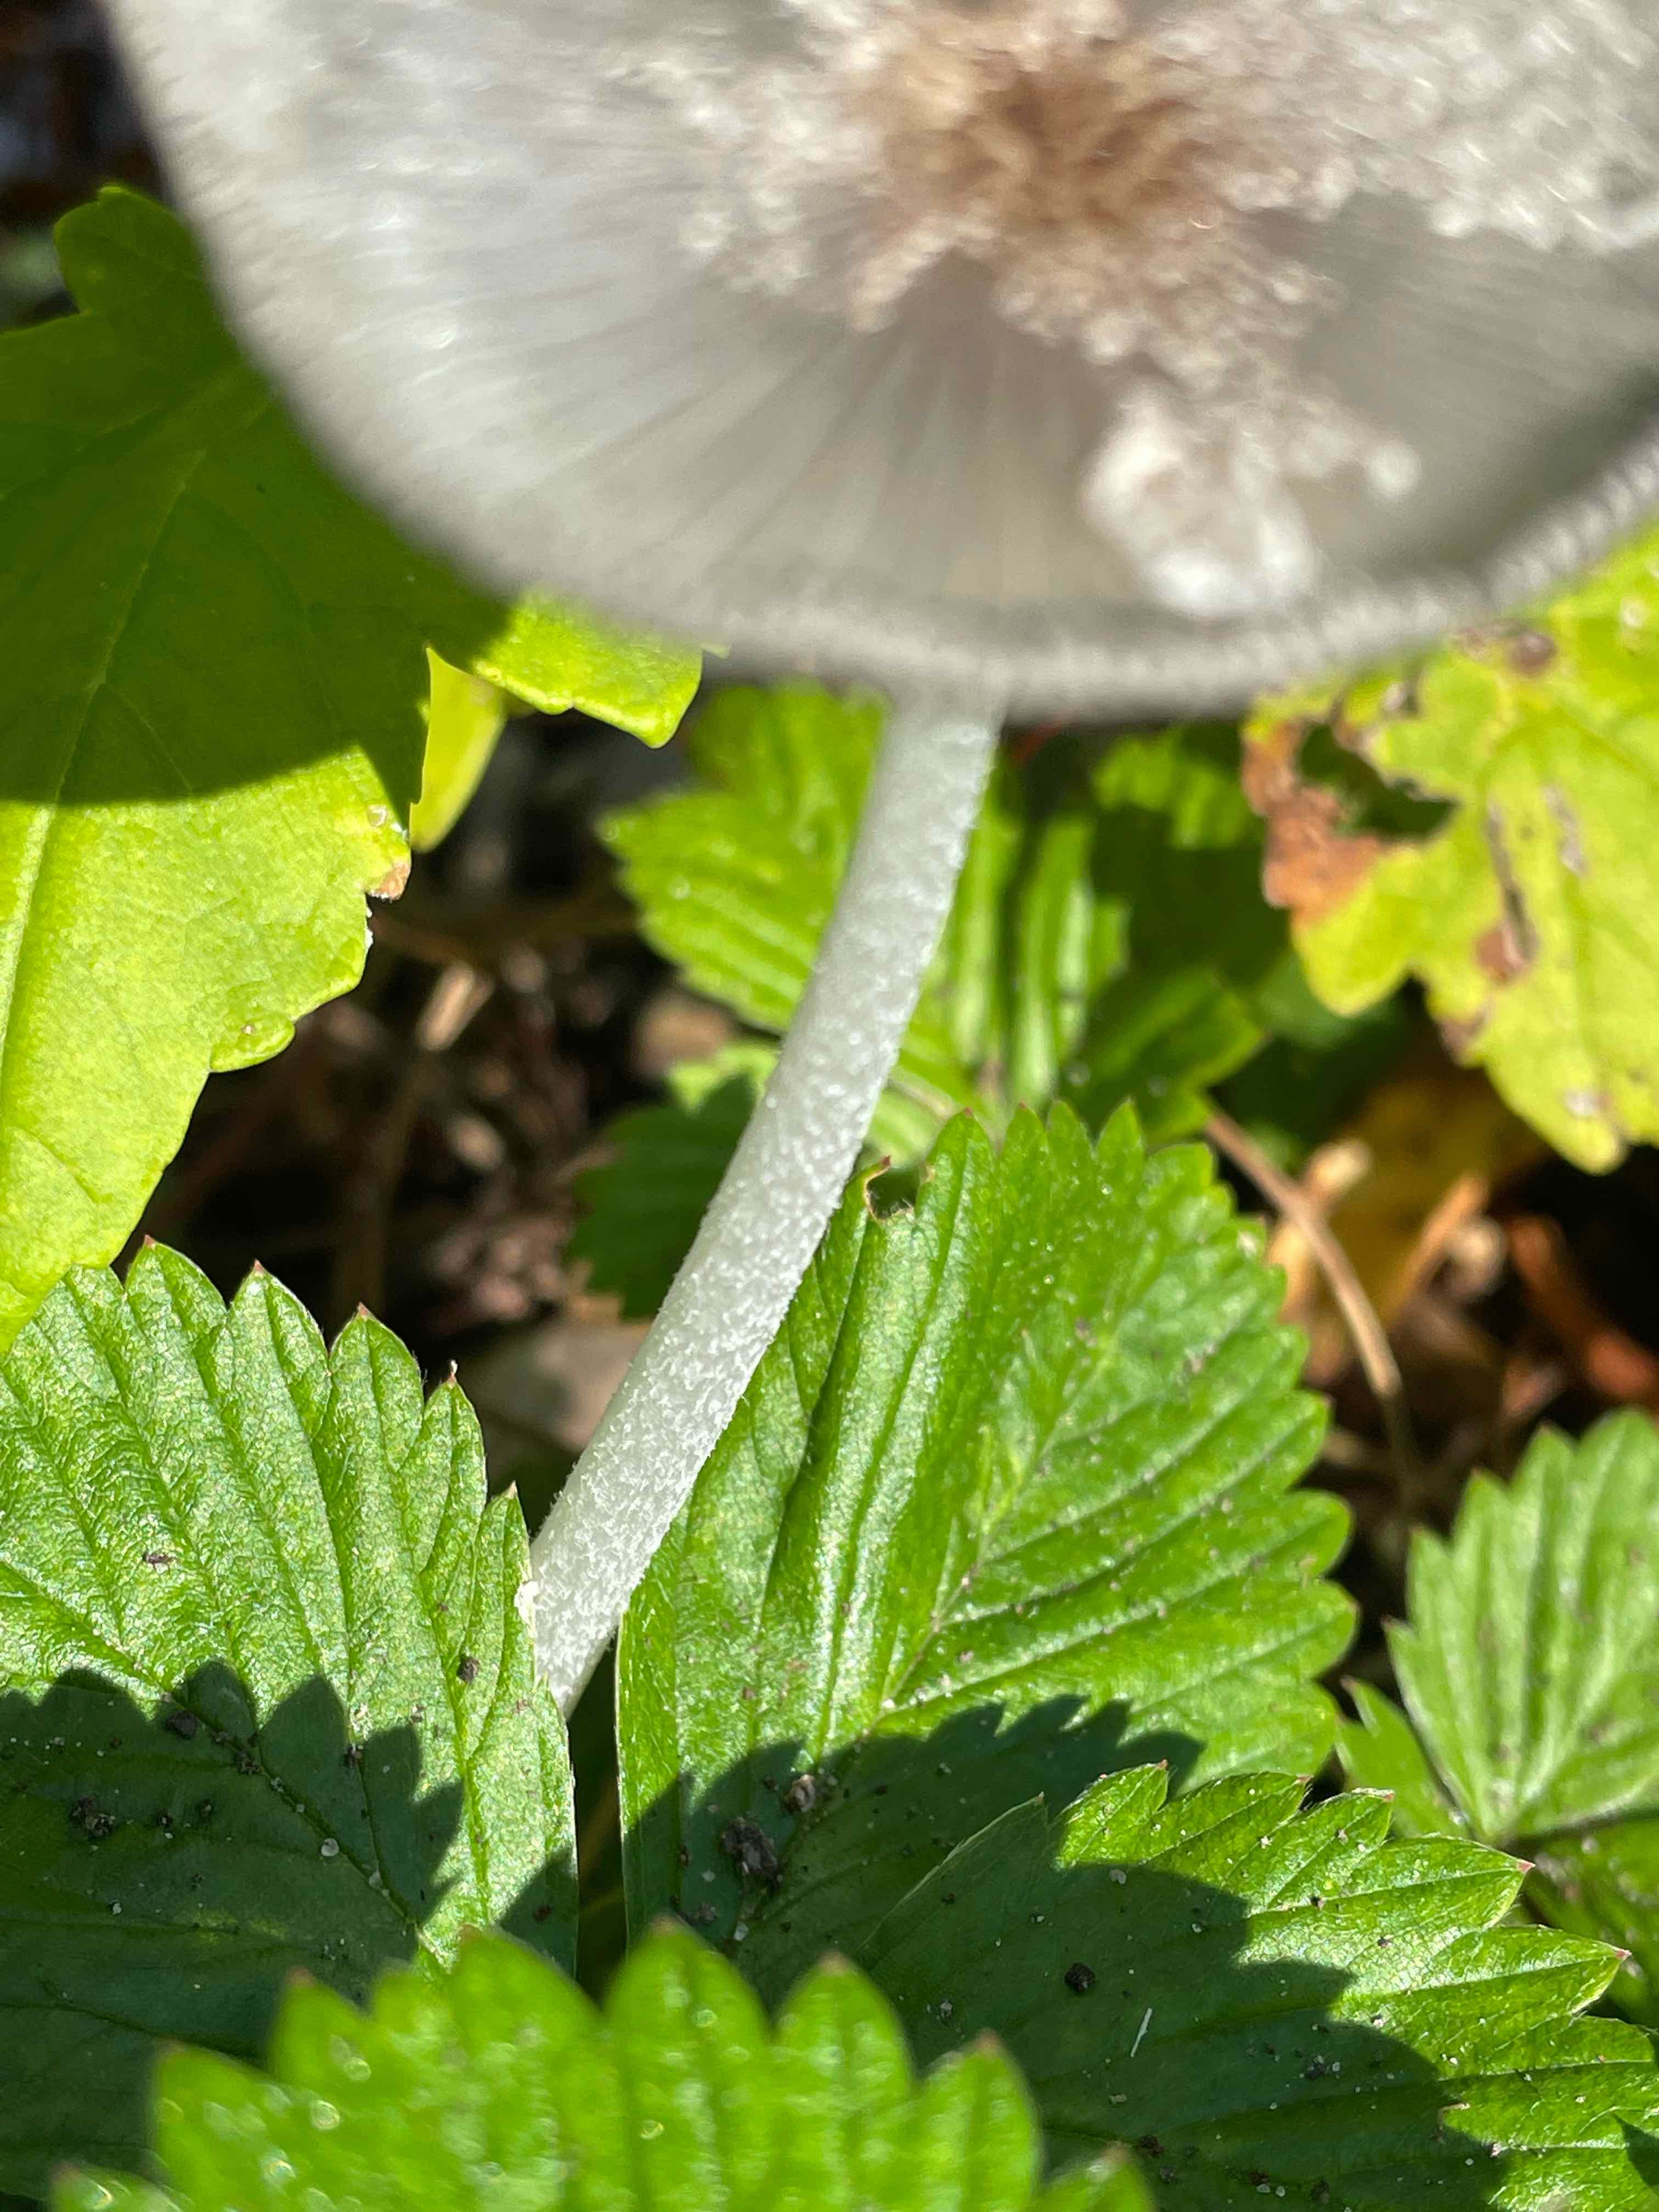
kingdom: Fungi
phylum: Basidiomycota
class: Agaricomycetes
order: Agaricales
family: Psathyrellaceae
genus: Coprinopsis
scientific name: Coprinopsis lagopus
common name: dunstokket blækhat
